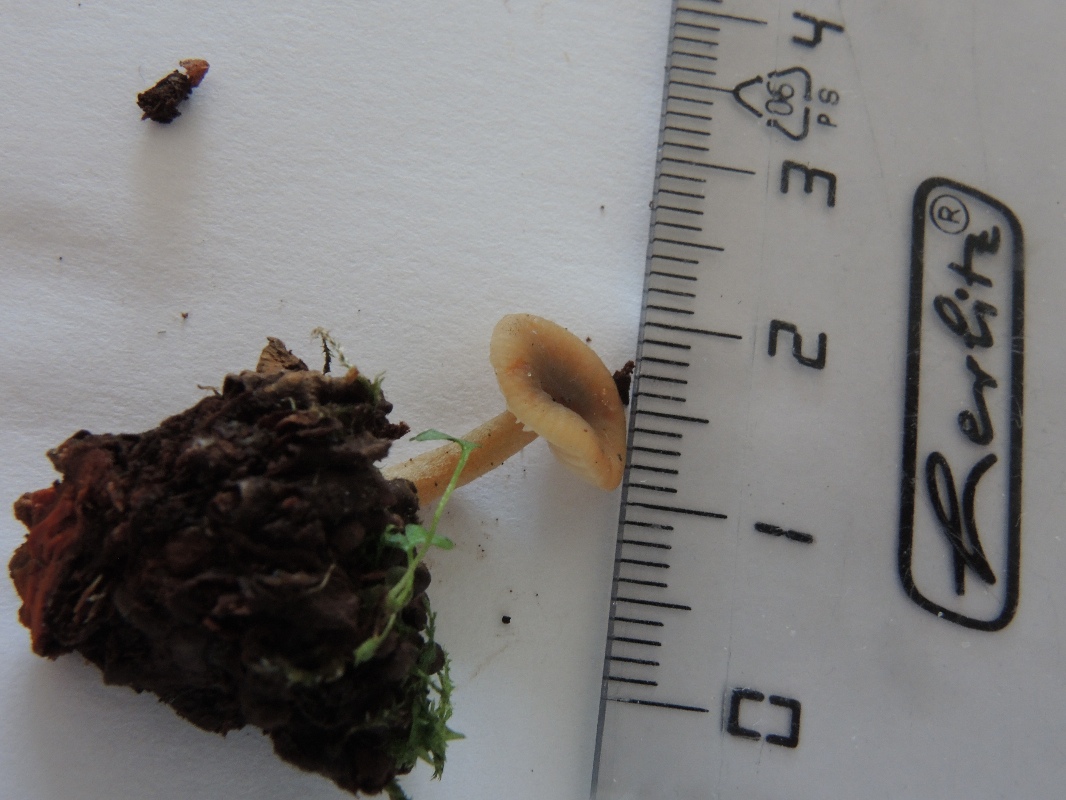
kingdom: Fungi
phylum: Basidiomycota
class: Agaricomycetes
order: Russulales
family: Russulaceae
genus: Lactarius
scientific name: Lactarius cyathuliformis
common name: mørkøjet mælkehat
